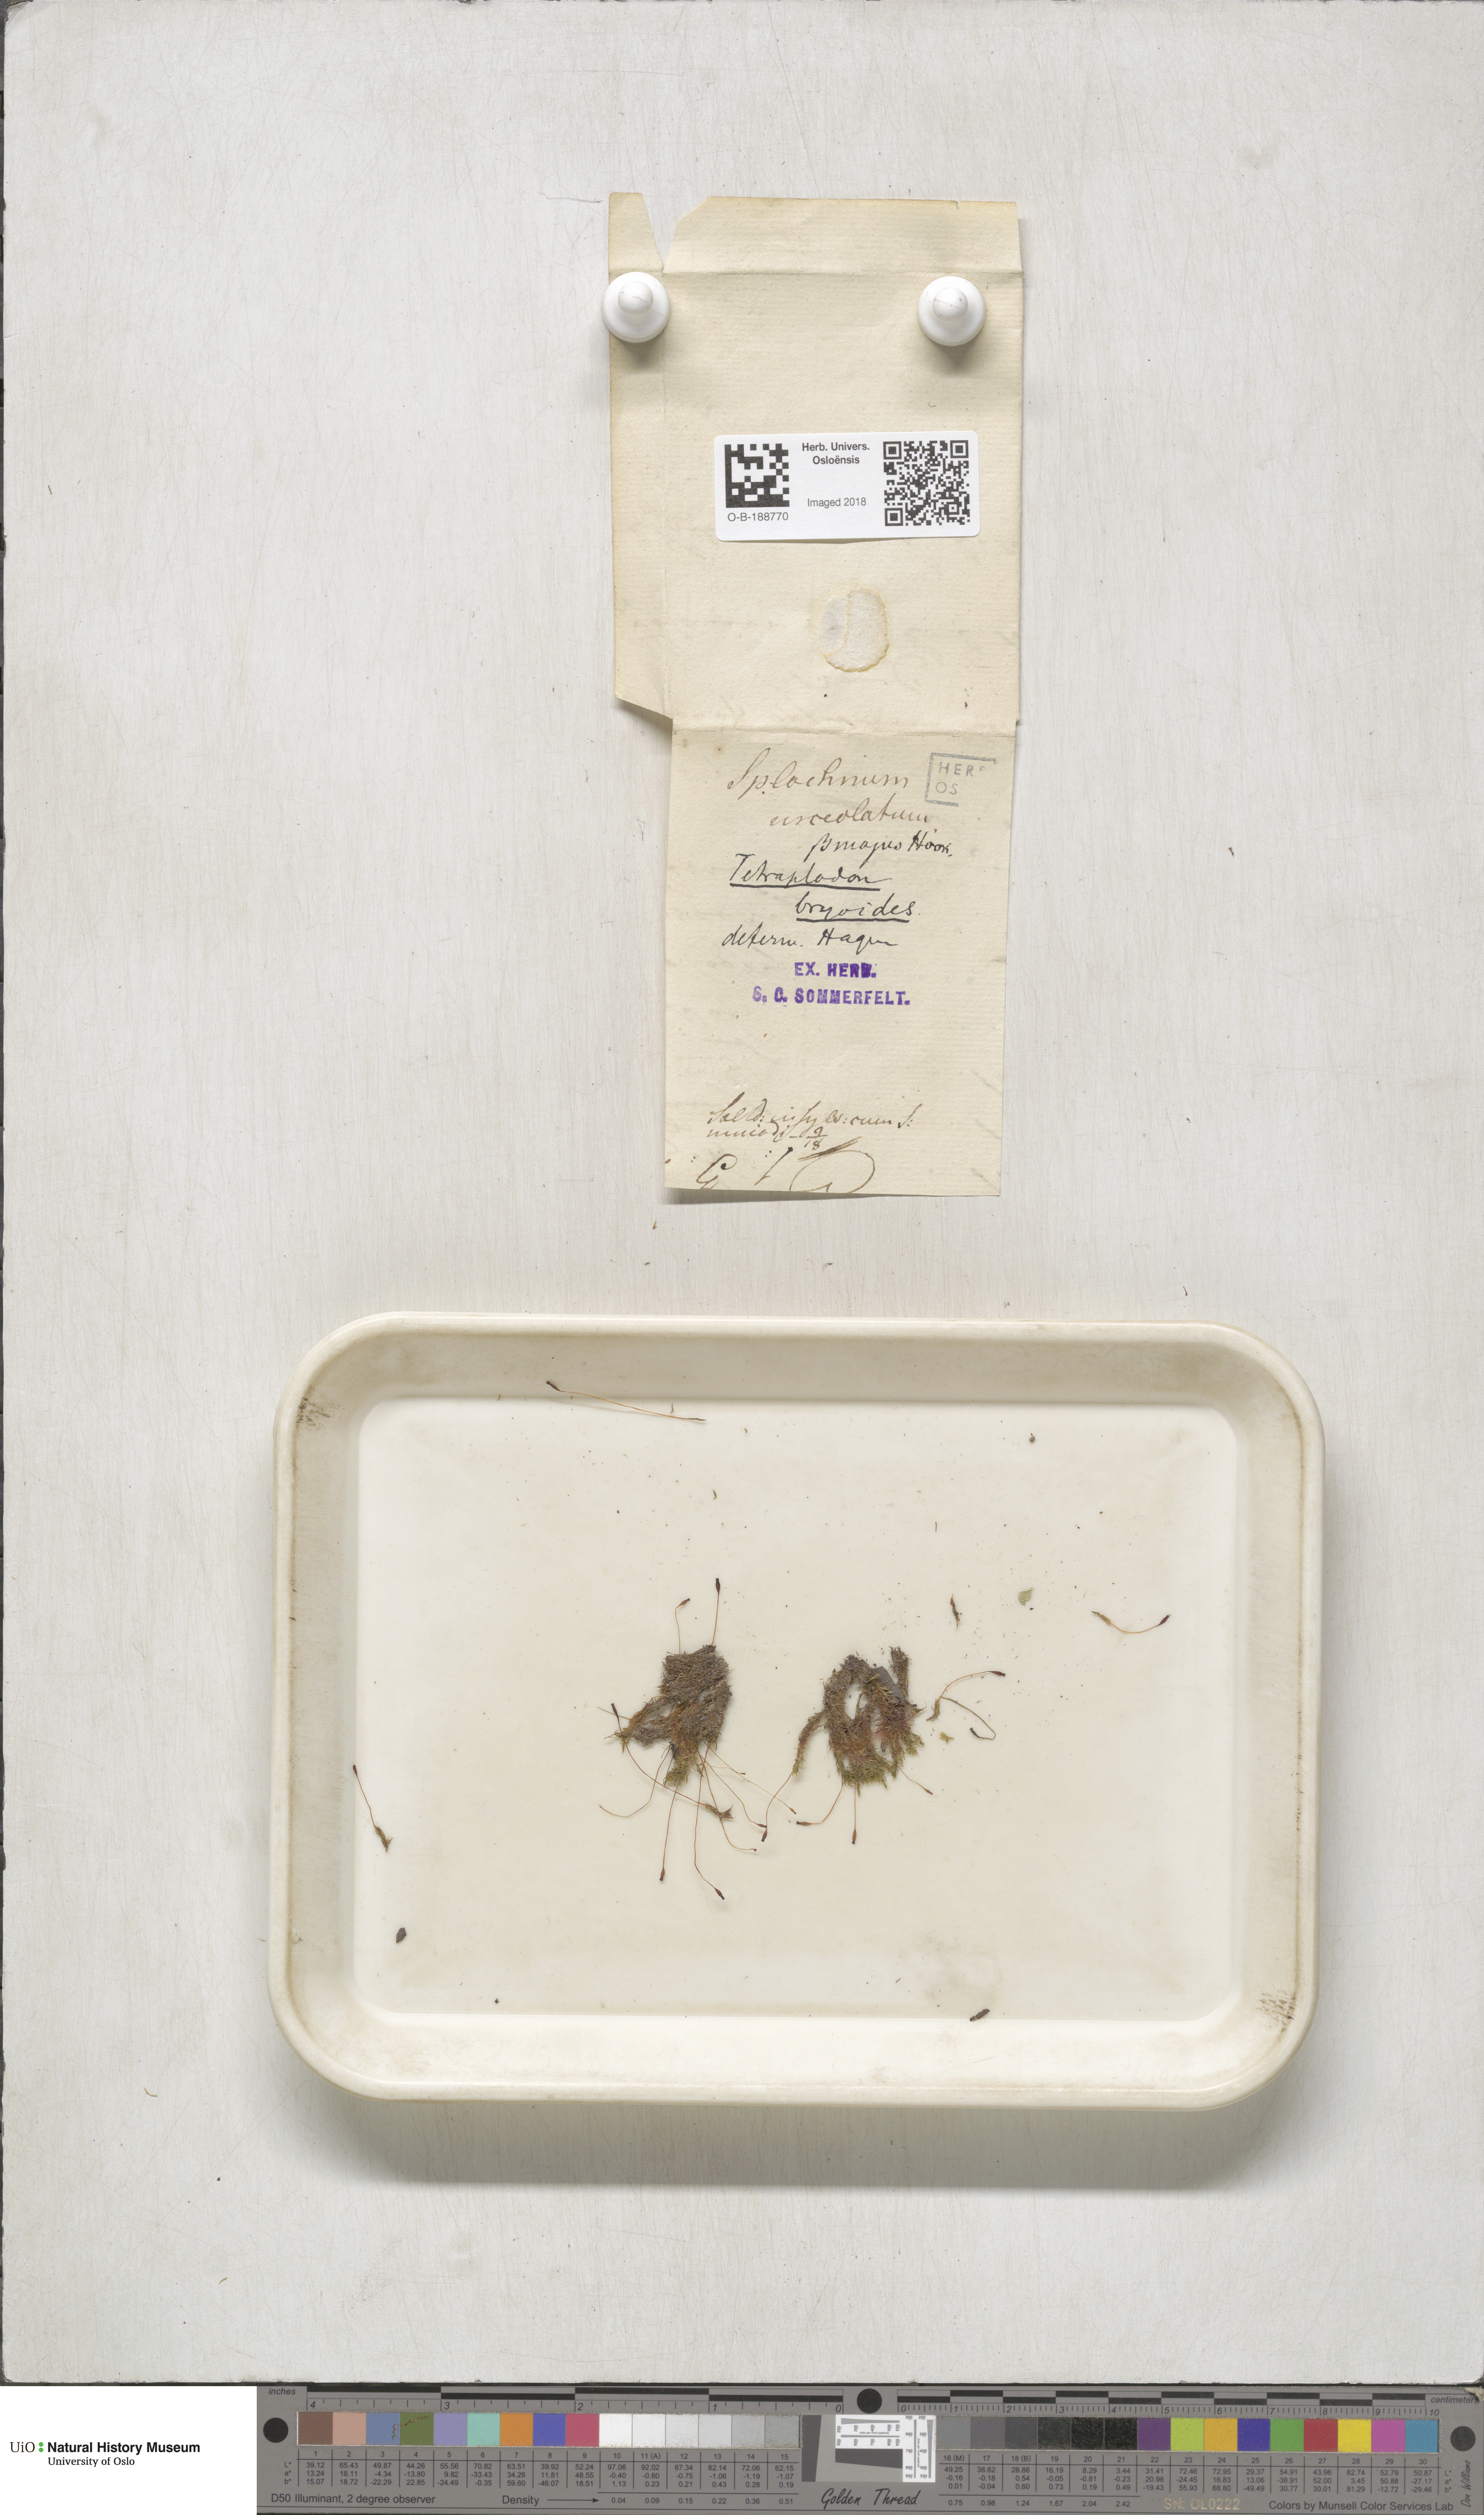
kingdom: Plantae
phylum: Bryophyta
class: Bryopsida
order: Splachnales
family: Splachnaceae
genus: Tetraplodon
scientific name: Tetraplodon mnioides
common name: Entire-leaved nitrogen moss
